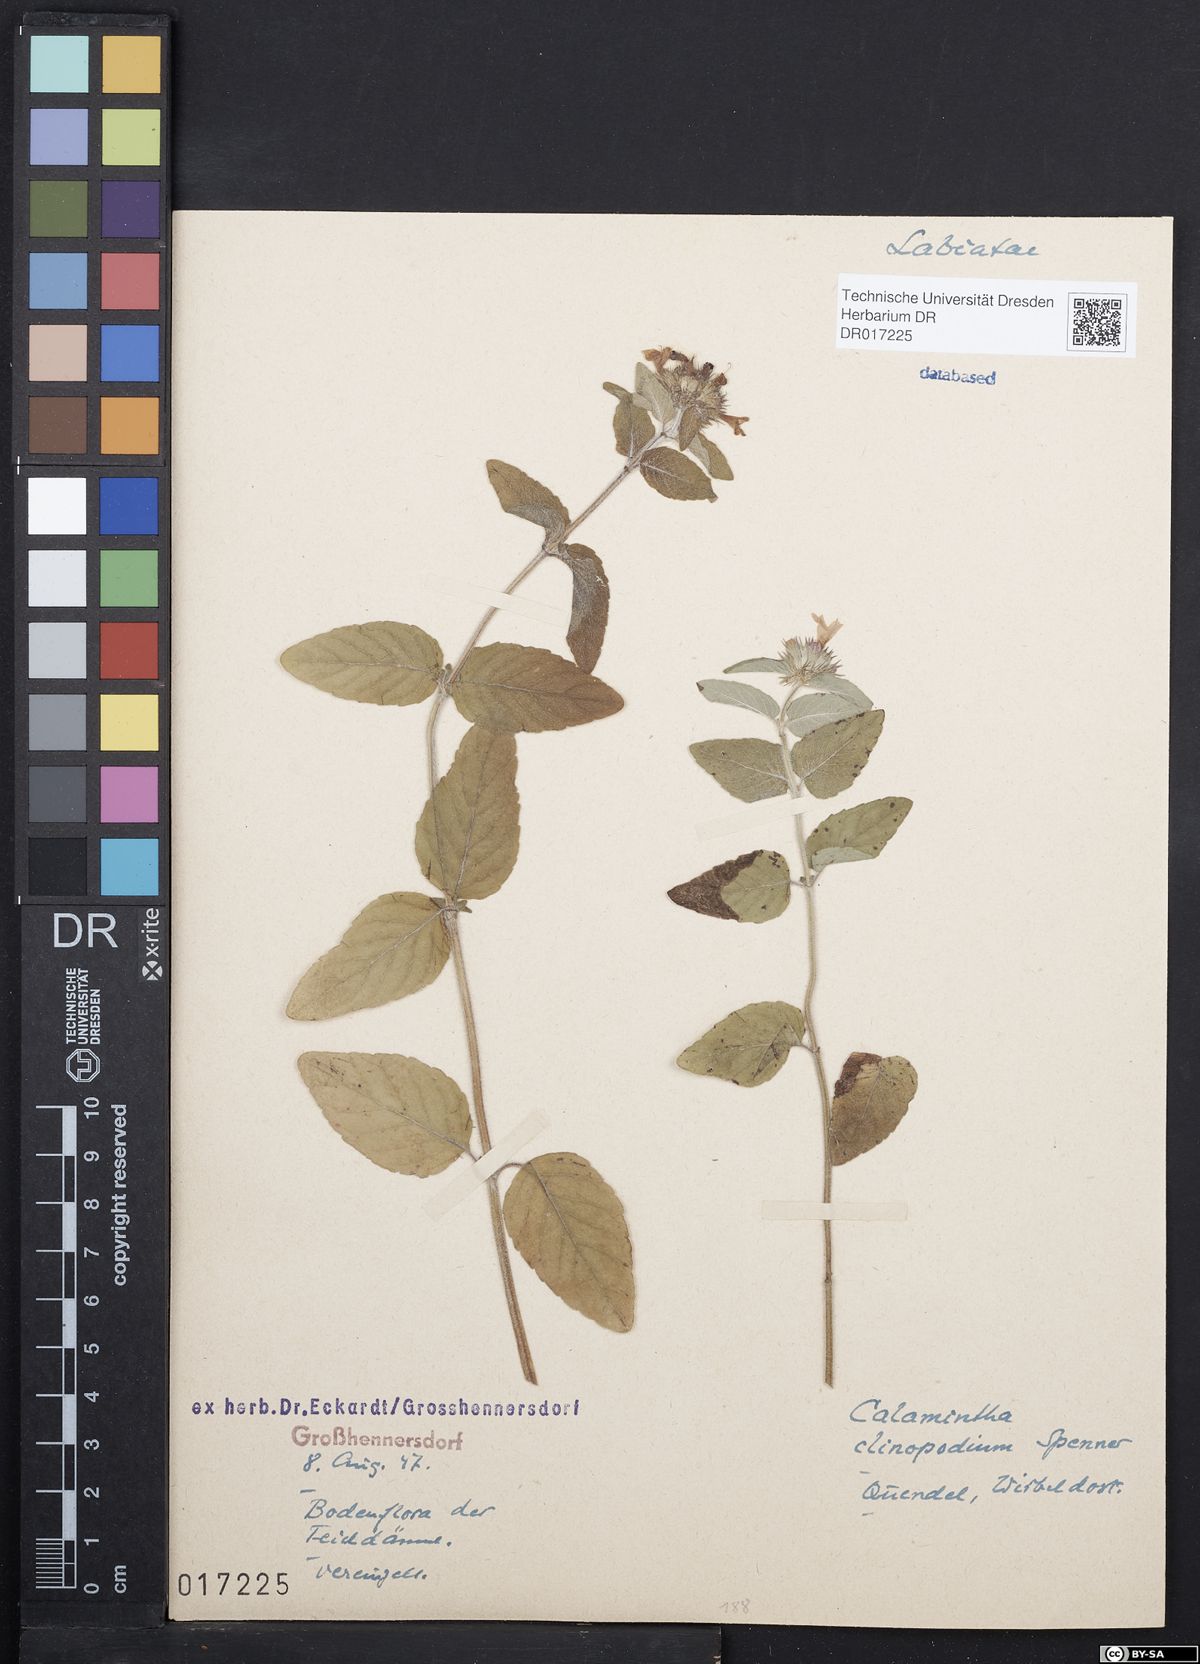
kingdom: Plantae
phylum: Tracheophyta
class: Magnoliopsida
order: Lamiales
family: Lamiaceae
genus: Clinopodium
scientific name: Clinopodium vulgare
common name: Wild basil
